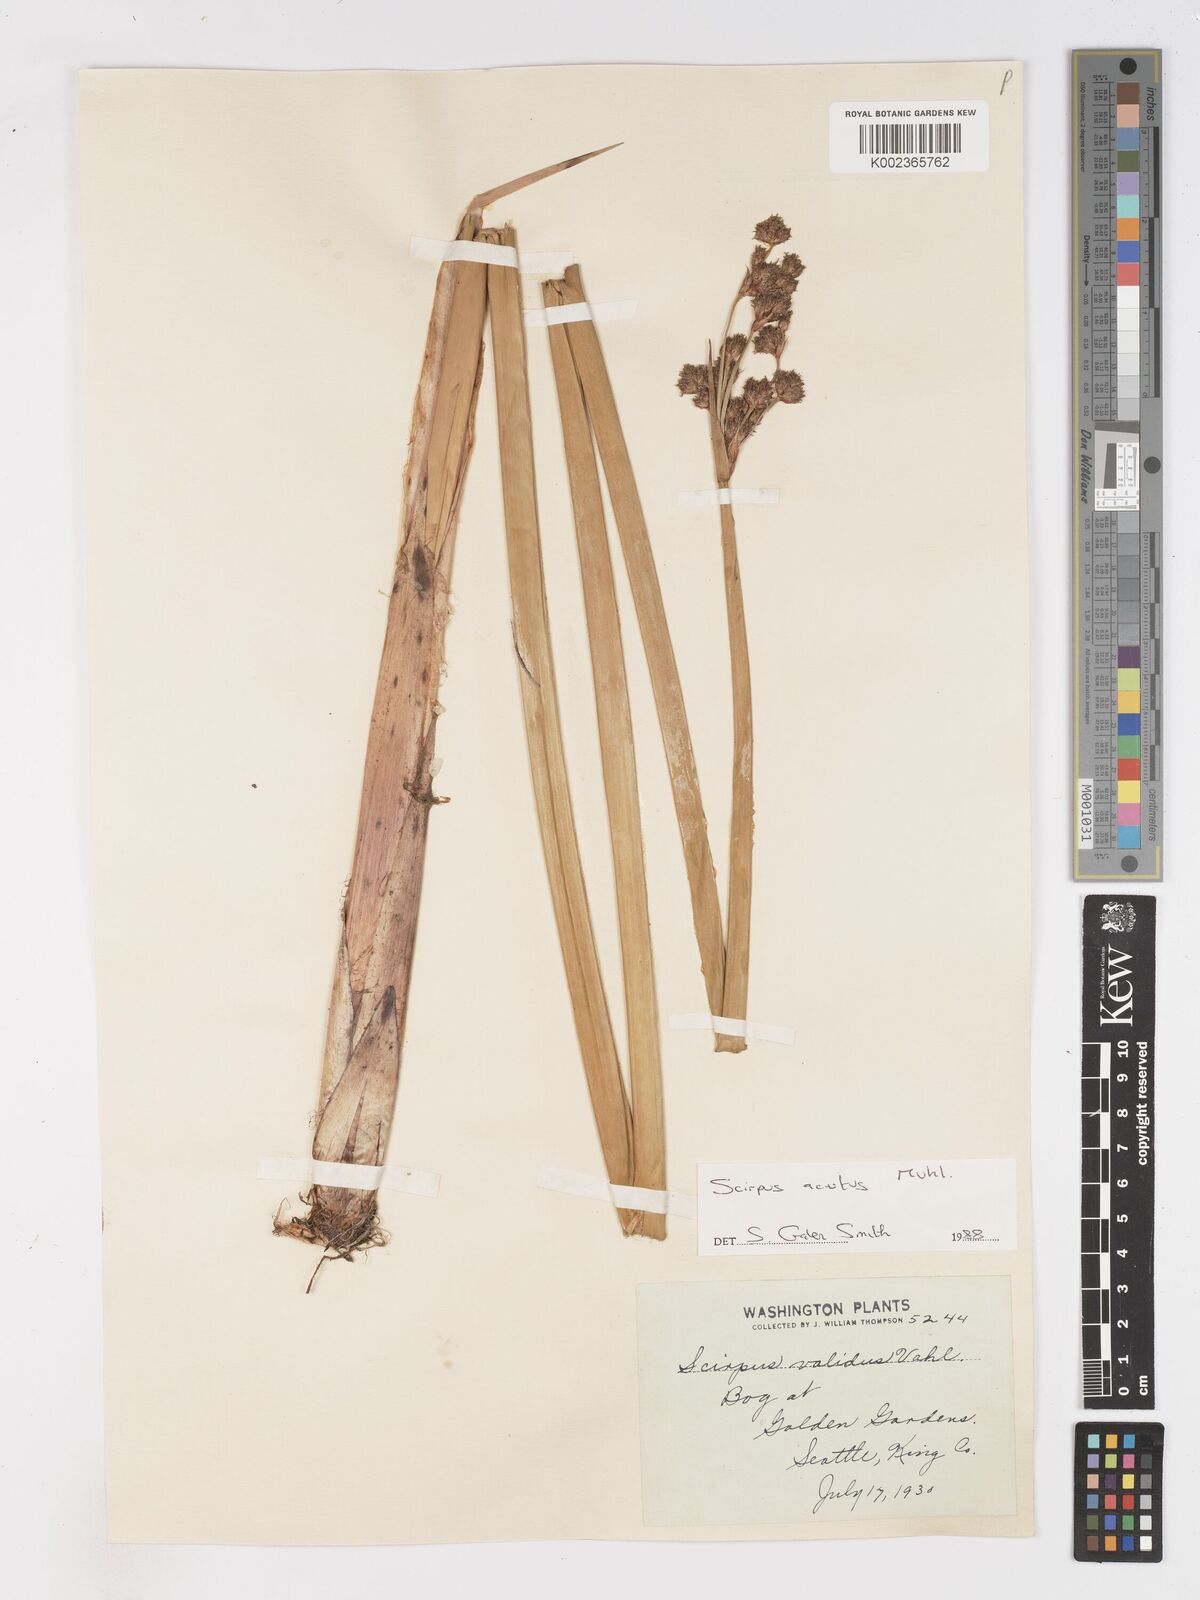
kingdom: Plantae
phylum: Tracheophyta
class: Liliopsida
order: Poales
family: Cyperaceae
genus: Schoenoplectus
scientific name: Schoenoplectus tabernaemontani
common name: Grey club-rush
